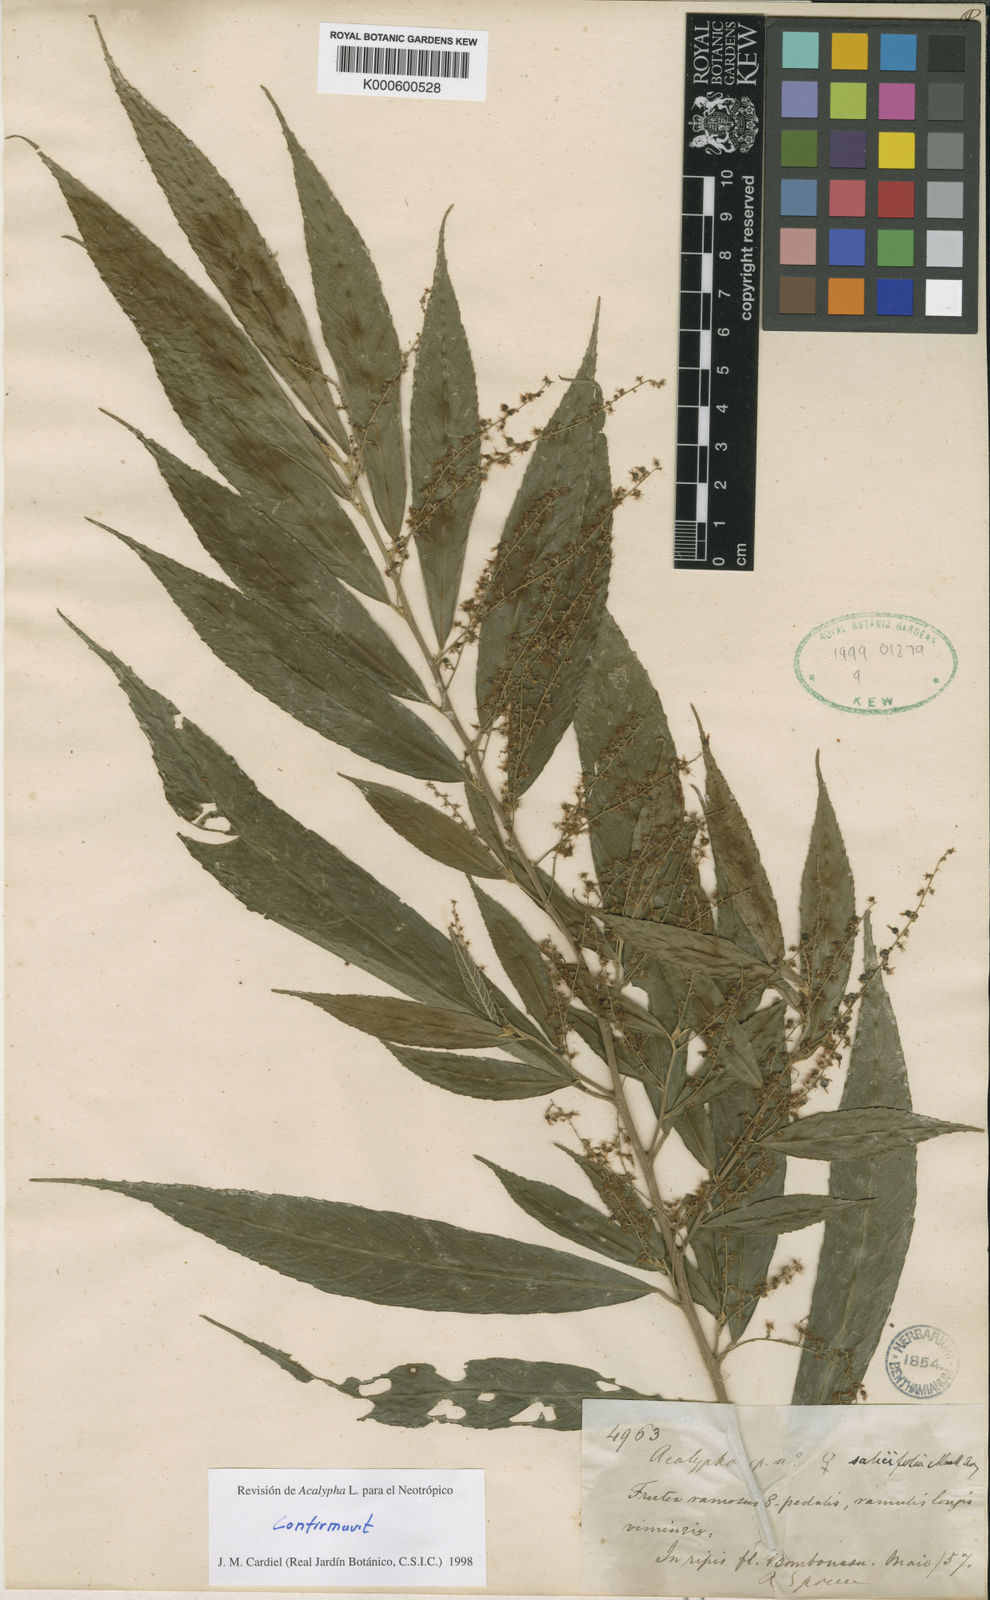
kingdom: Plantae
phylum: Tracheophyta
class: Magnoliopsida
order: Malpighiales
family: Euphorbiaceae
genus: Acalypha
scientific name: Acalypha
